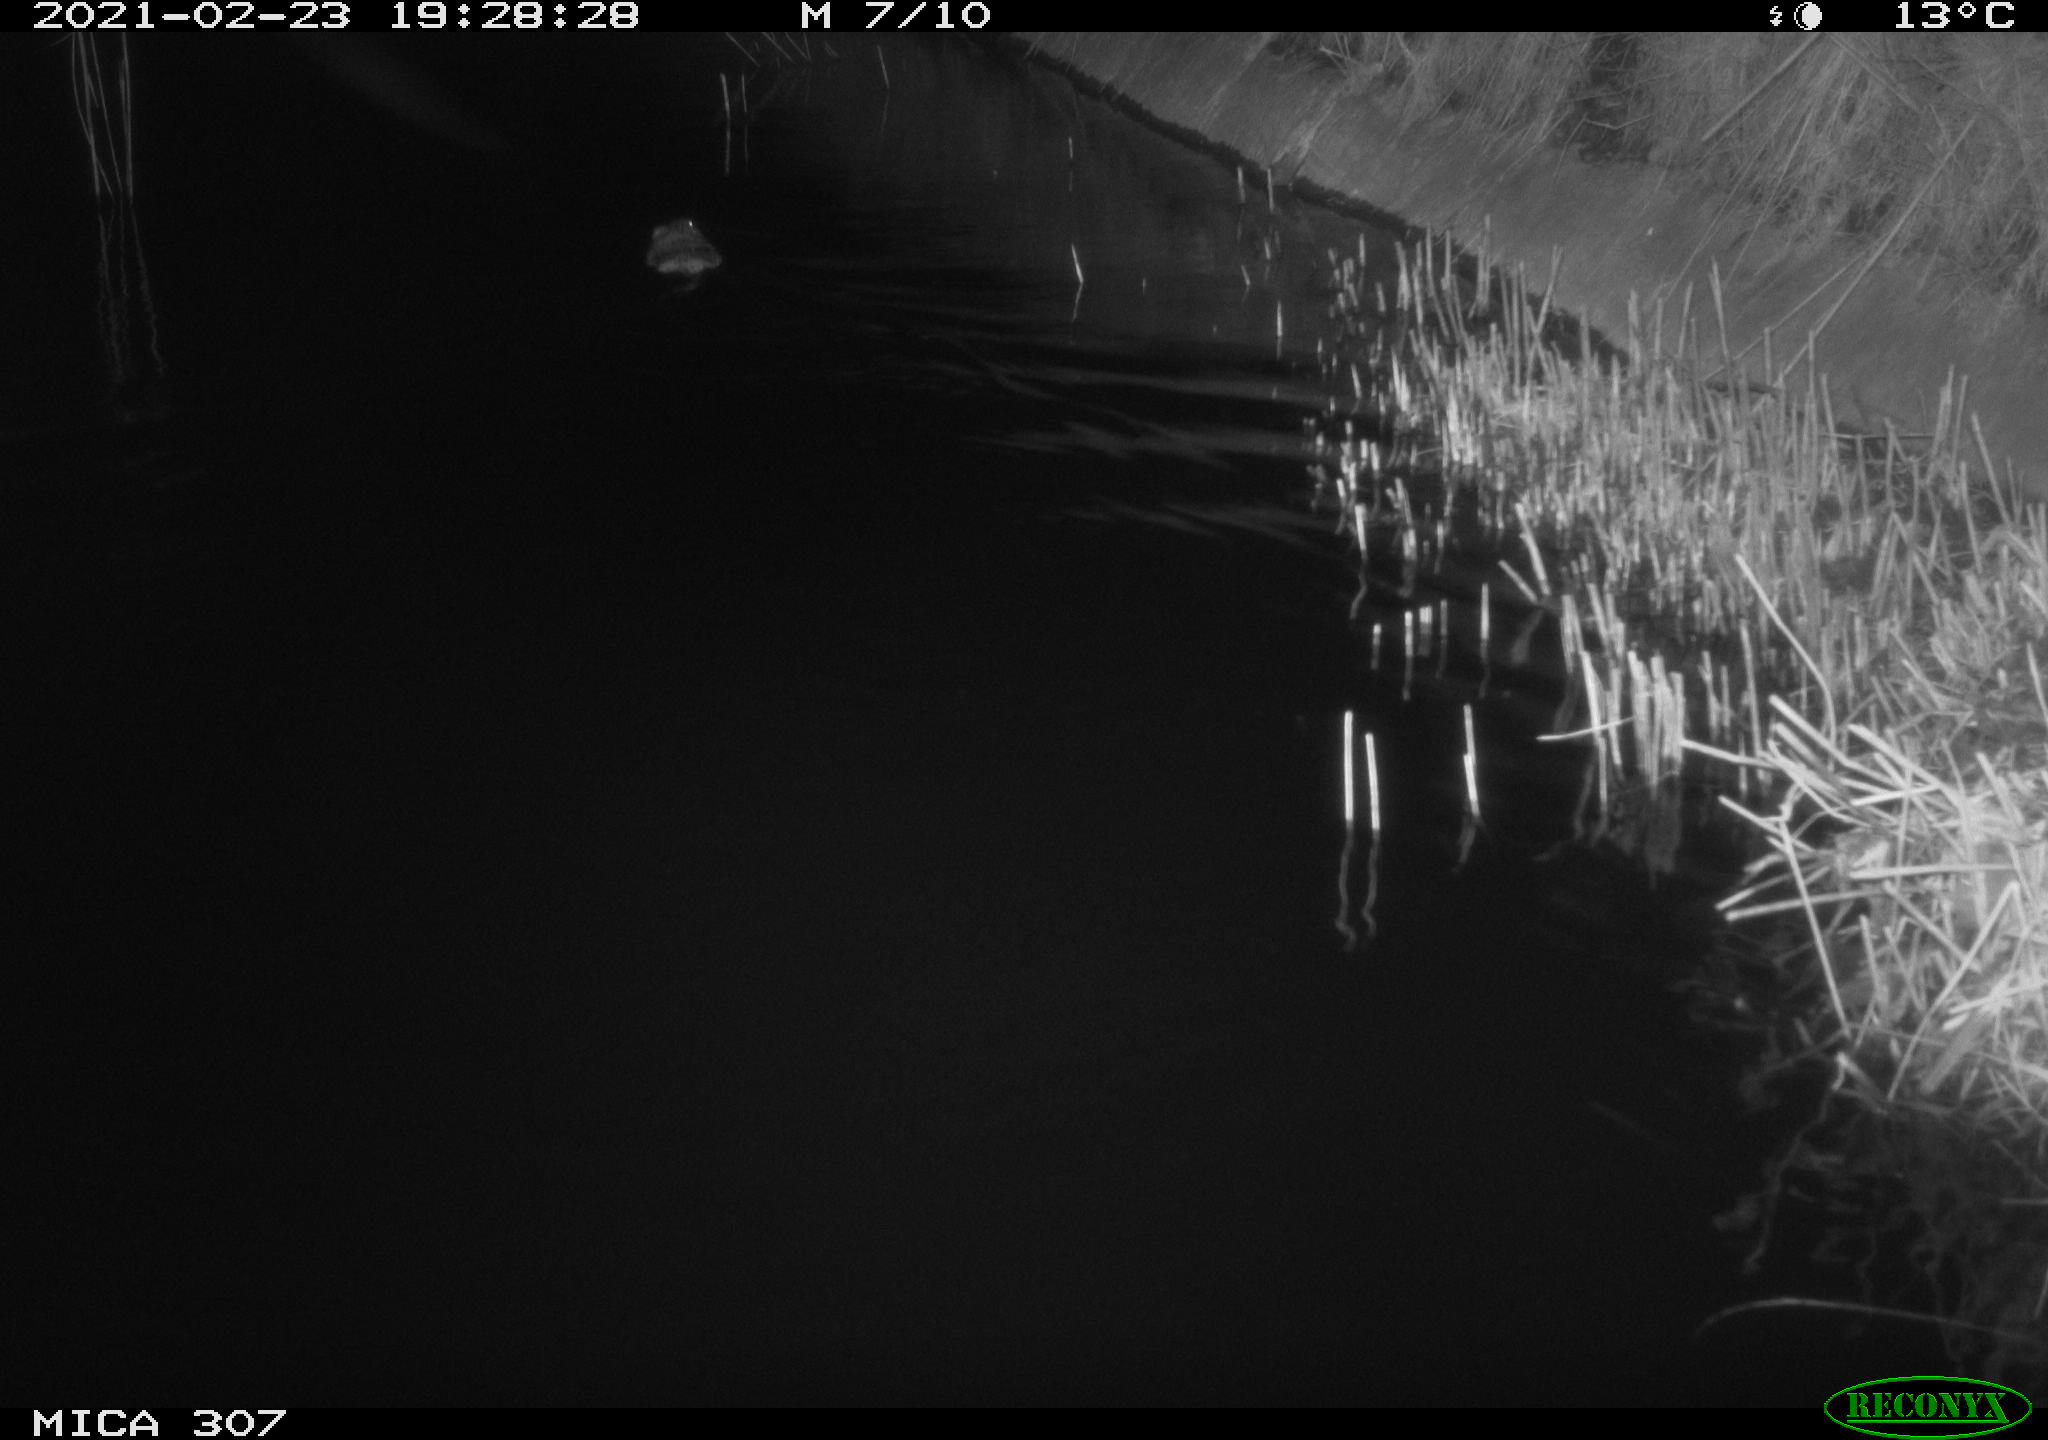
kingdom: Animalia
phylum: Chordata
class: Mammalia
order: Rodentia
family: Cricetidae
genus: Ondatra
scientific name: Ondatra zibethicus
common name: Muskrat
